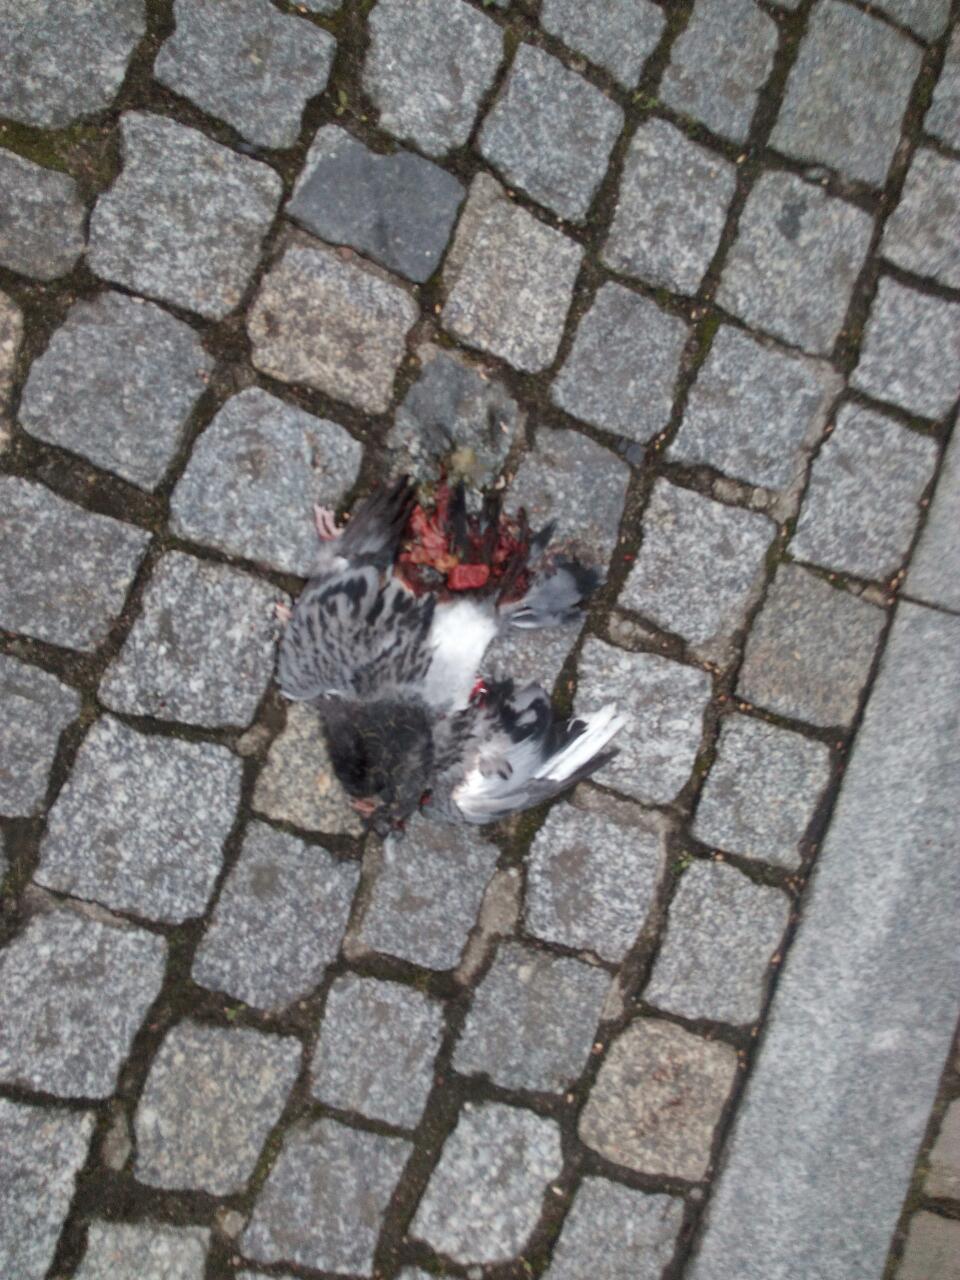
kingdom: Animalia
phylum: Chordata
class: Aves
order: Columbiformes
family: Columbidae
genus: Columba
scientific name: Columba livia
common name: Rock pigeon
